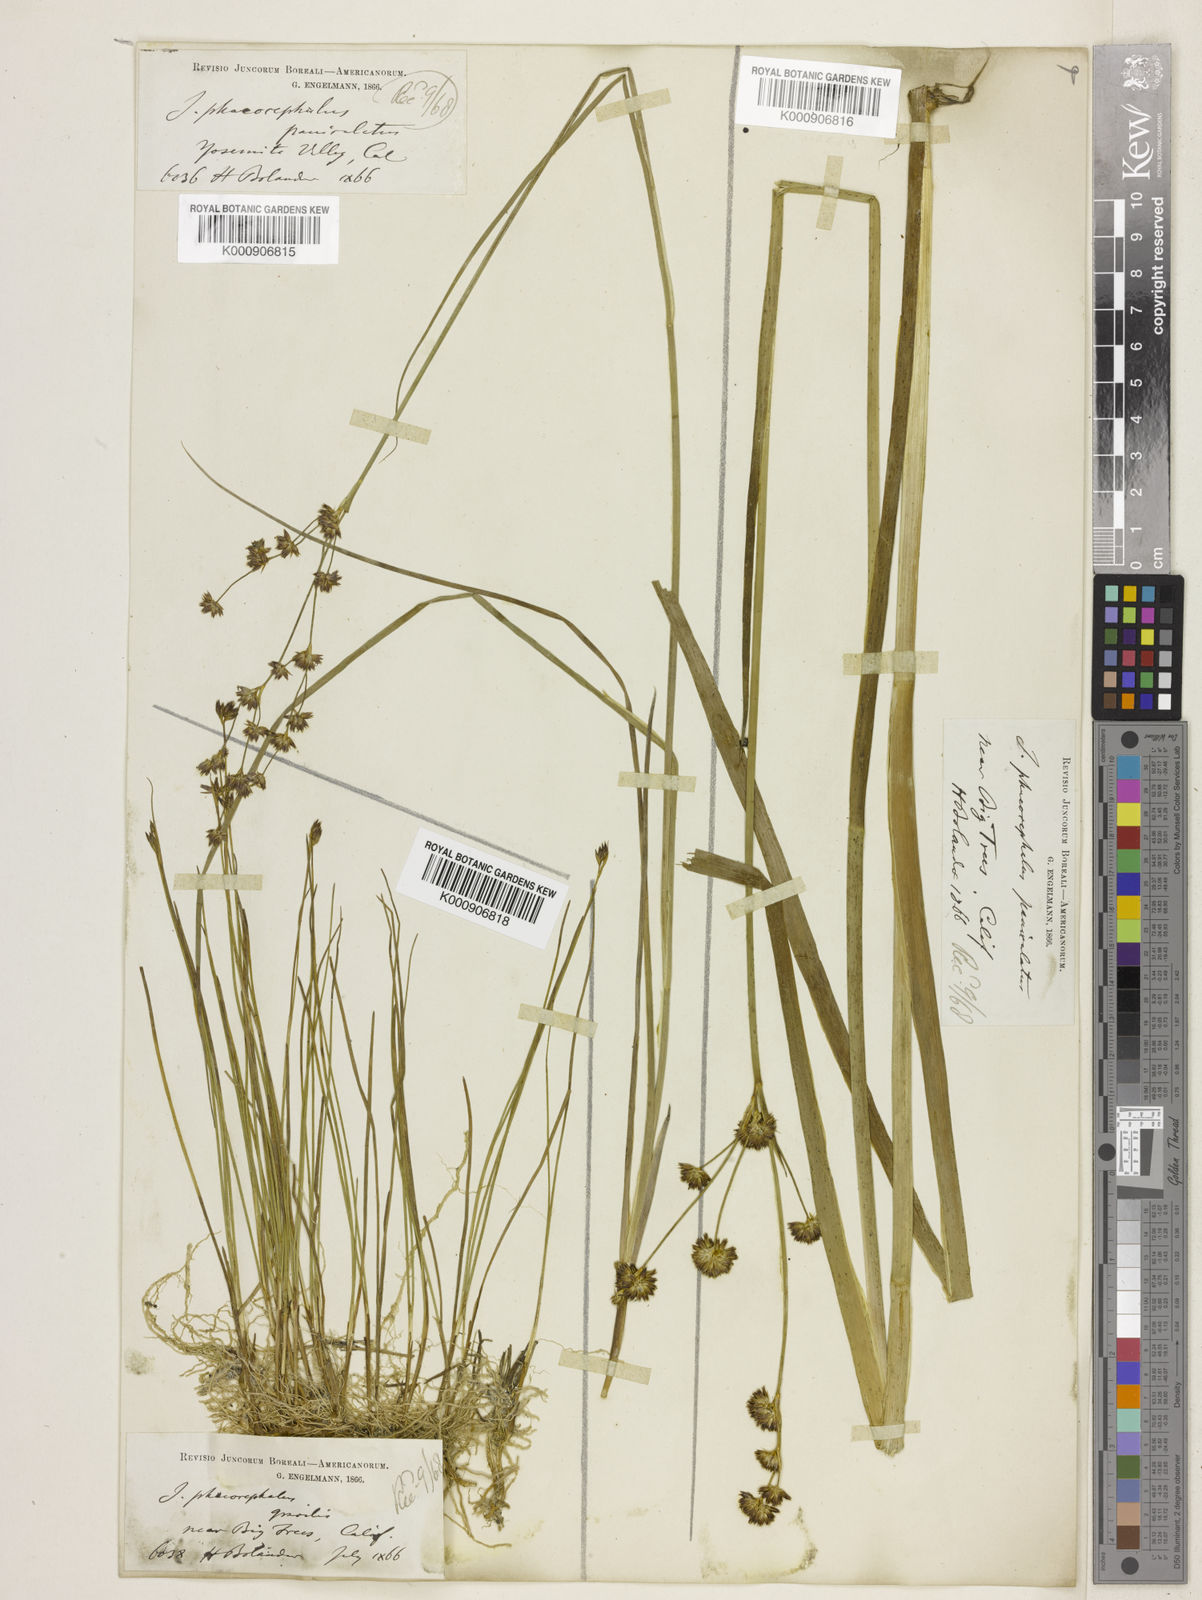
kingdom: Plantae
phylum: Tracheophyta
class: Liliopsida
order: Poales
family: Juncaceae
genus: Juncus
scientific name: Juncus phaeocephalus
